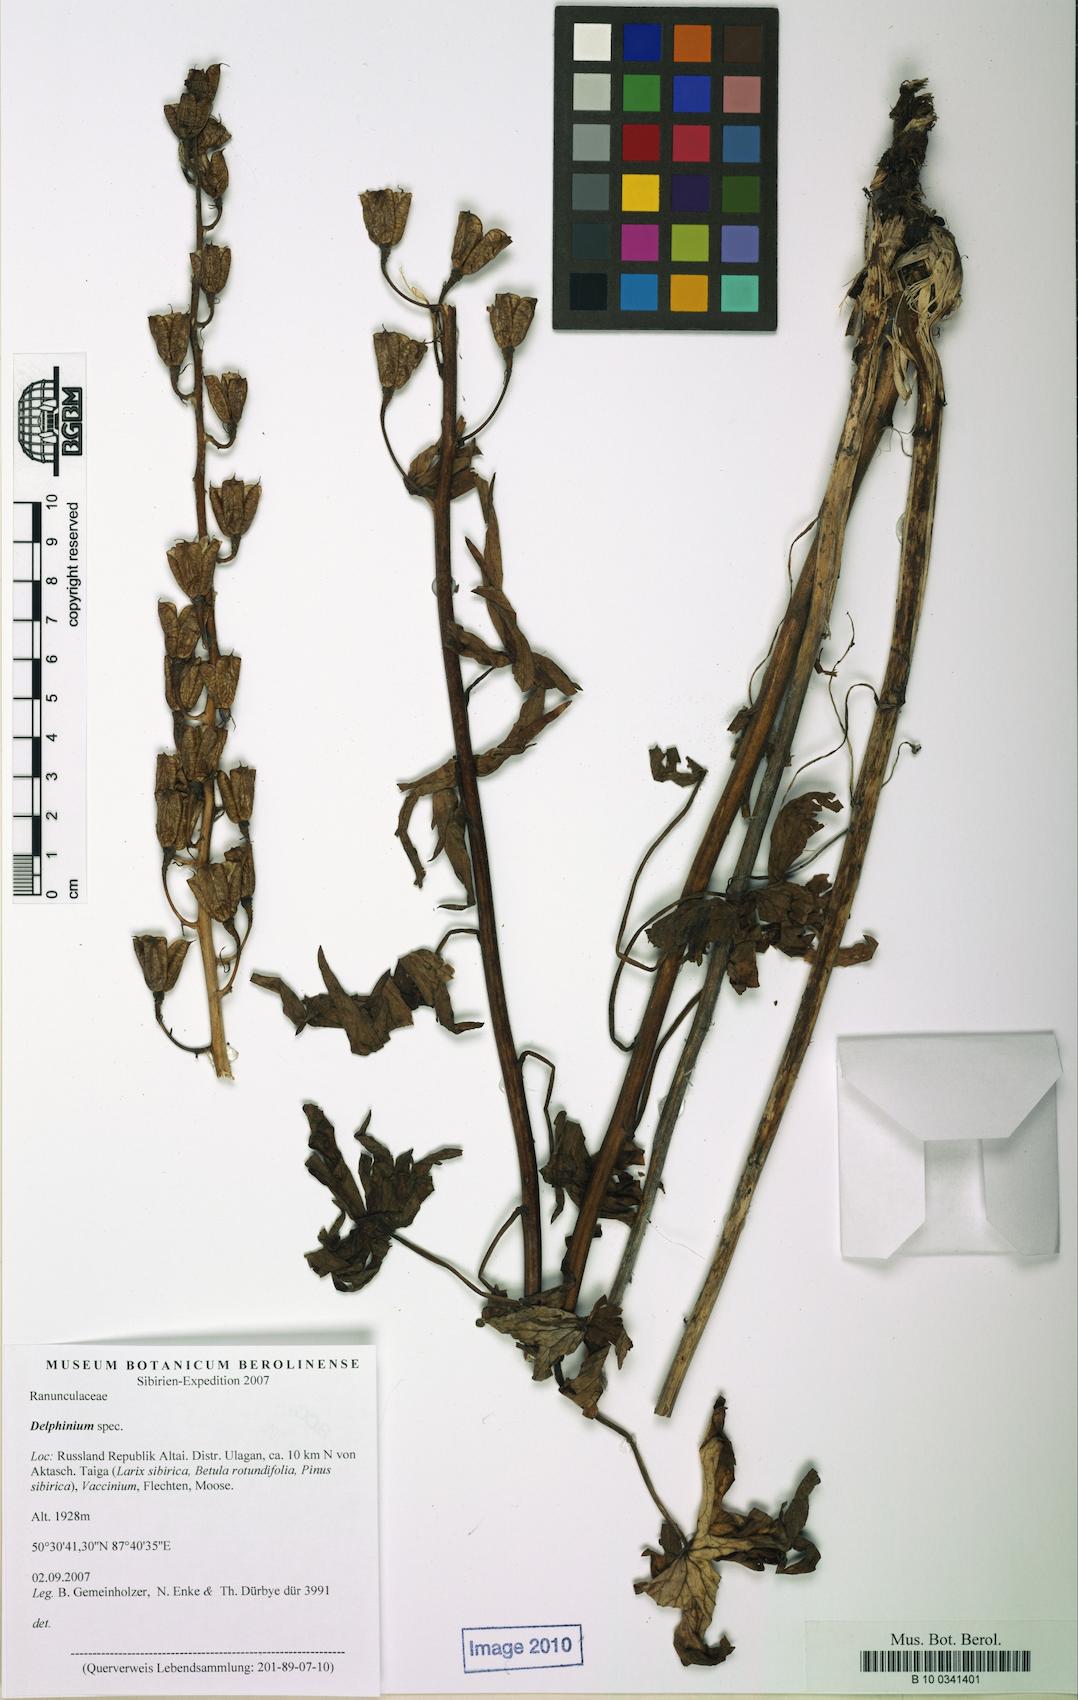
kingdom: Plantae
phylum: Tracheophyta
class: Magnoliopsida
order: Ranunculales
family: Ranunculaceae
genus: Delphinium
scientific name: Delphinium
